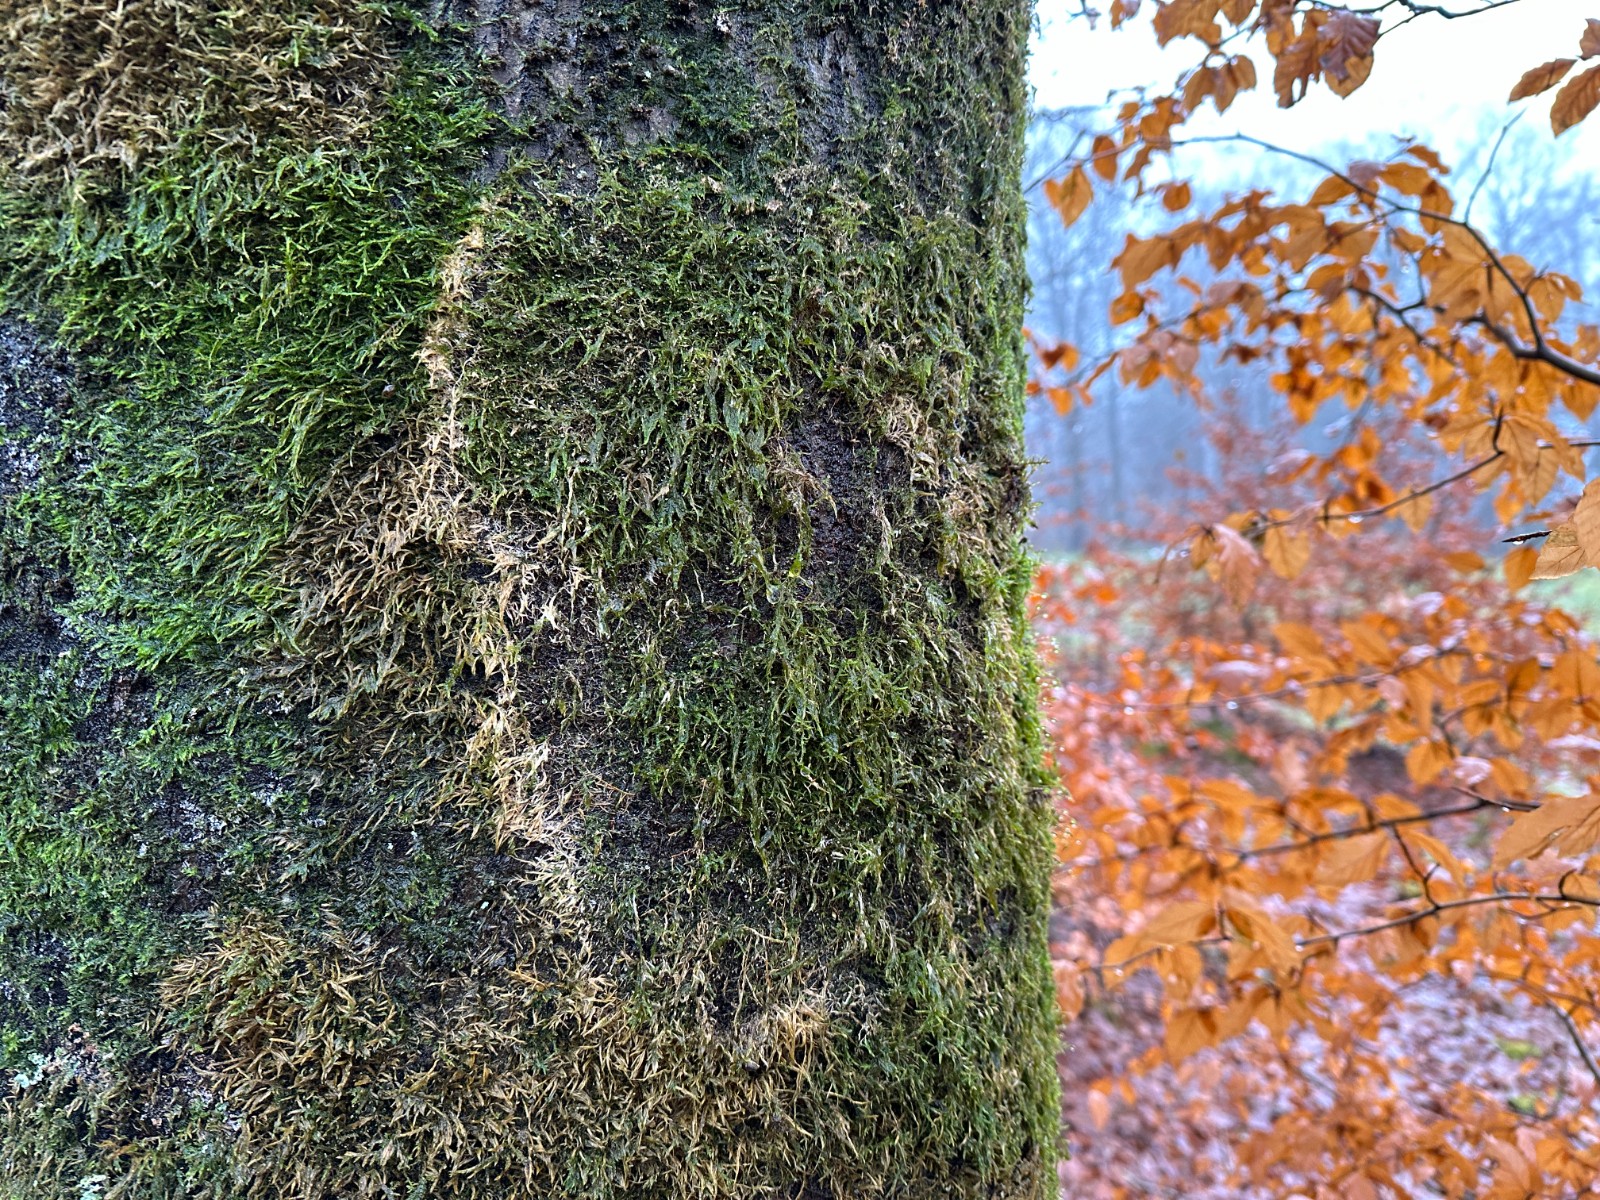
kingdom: Fungi
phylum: Basidiomycota
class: Agaricomycetes
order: Agaricales
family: Chromocyphellaceae
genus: Chromocyphella
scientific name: Chromocyphella muscicola
